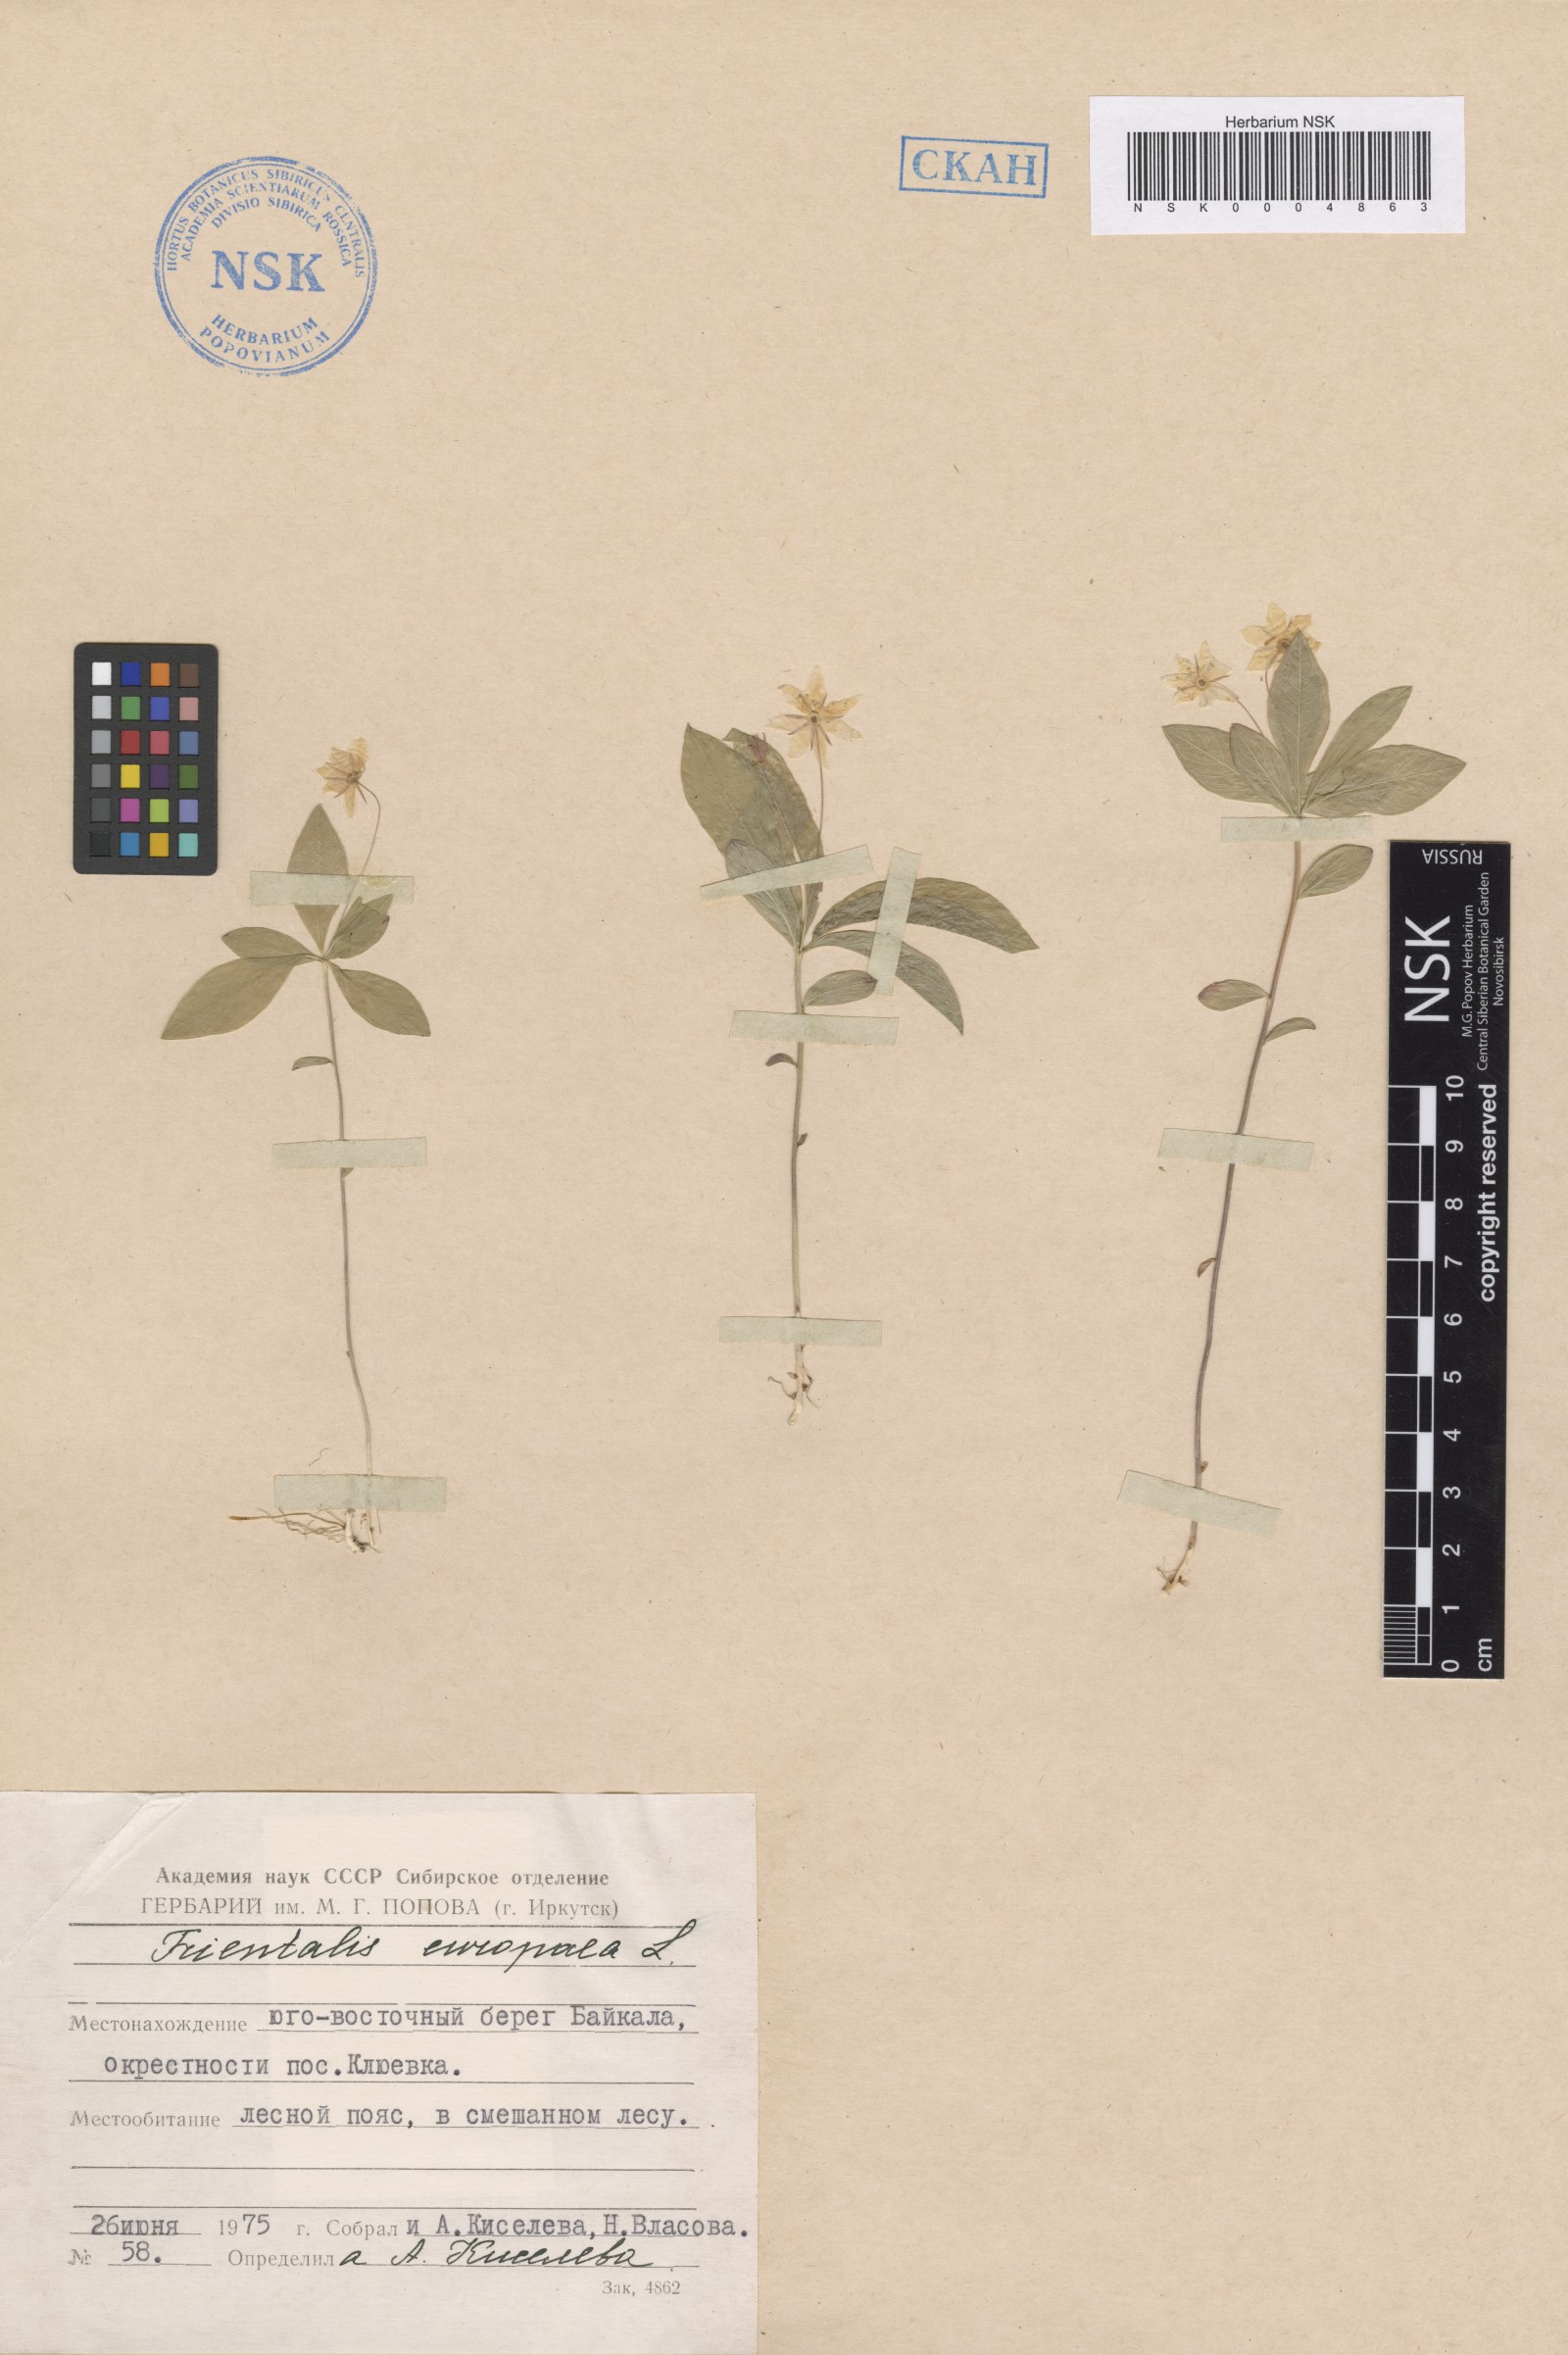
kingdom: Plantae
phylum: Tracheophyta
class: Magnoliopsida
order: Ericales
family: Primulaceae
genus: Lysimachia
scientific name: Lysimachia europaea
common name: Arctic starflower
